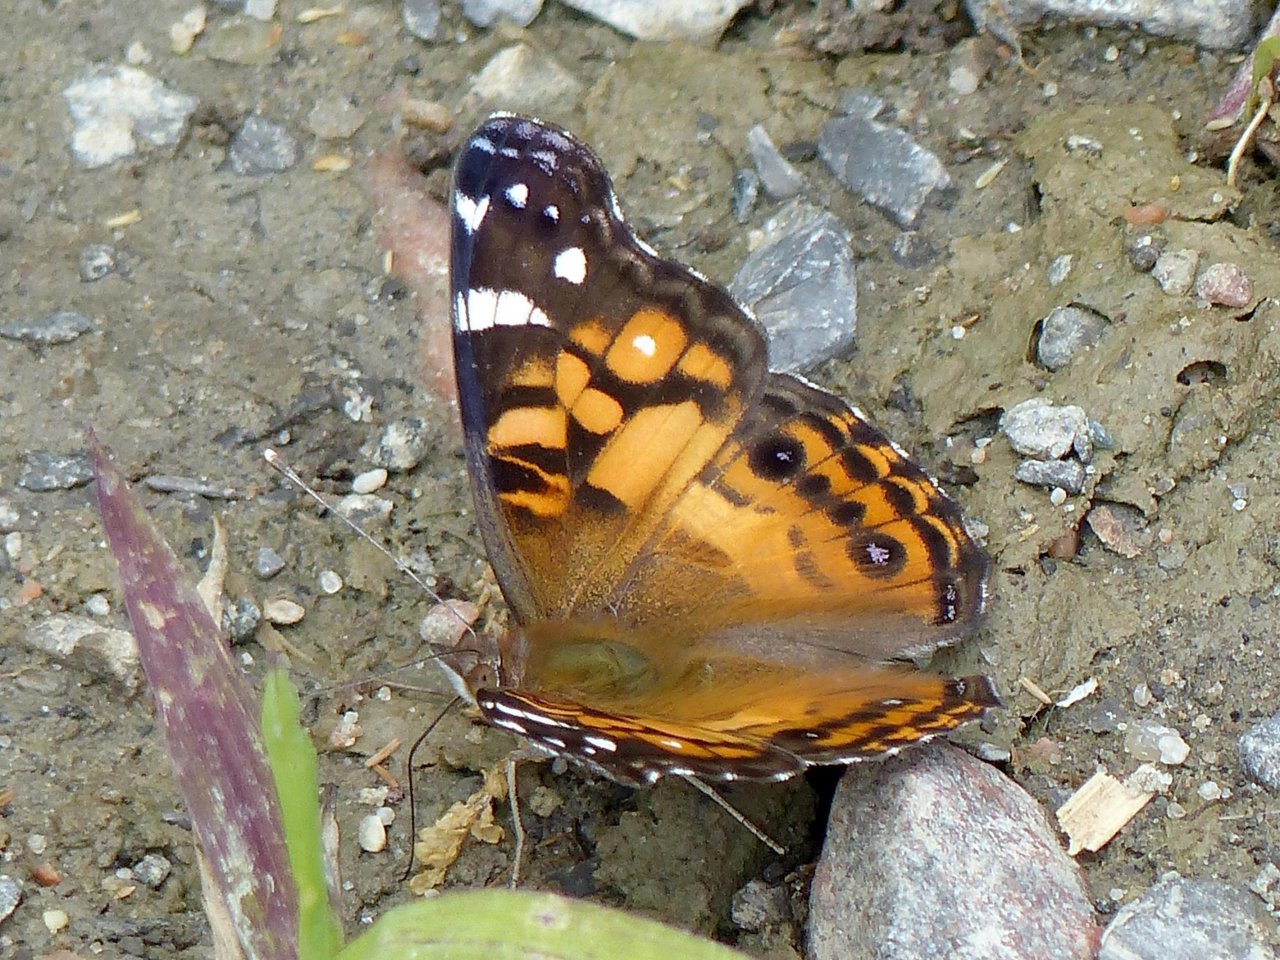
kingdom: Animalia
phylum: Arthropoda
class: Insecta
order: Lepidoptera
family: Nymphalidae
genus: Vanessa
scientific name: Vanessa virginiensis
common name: American Lady
